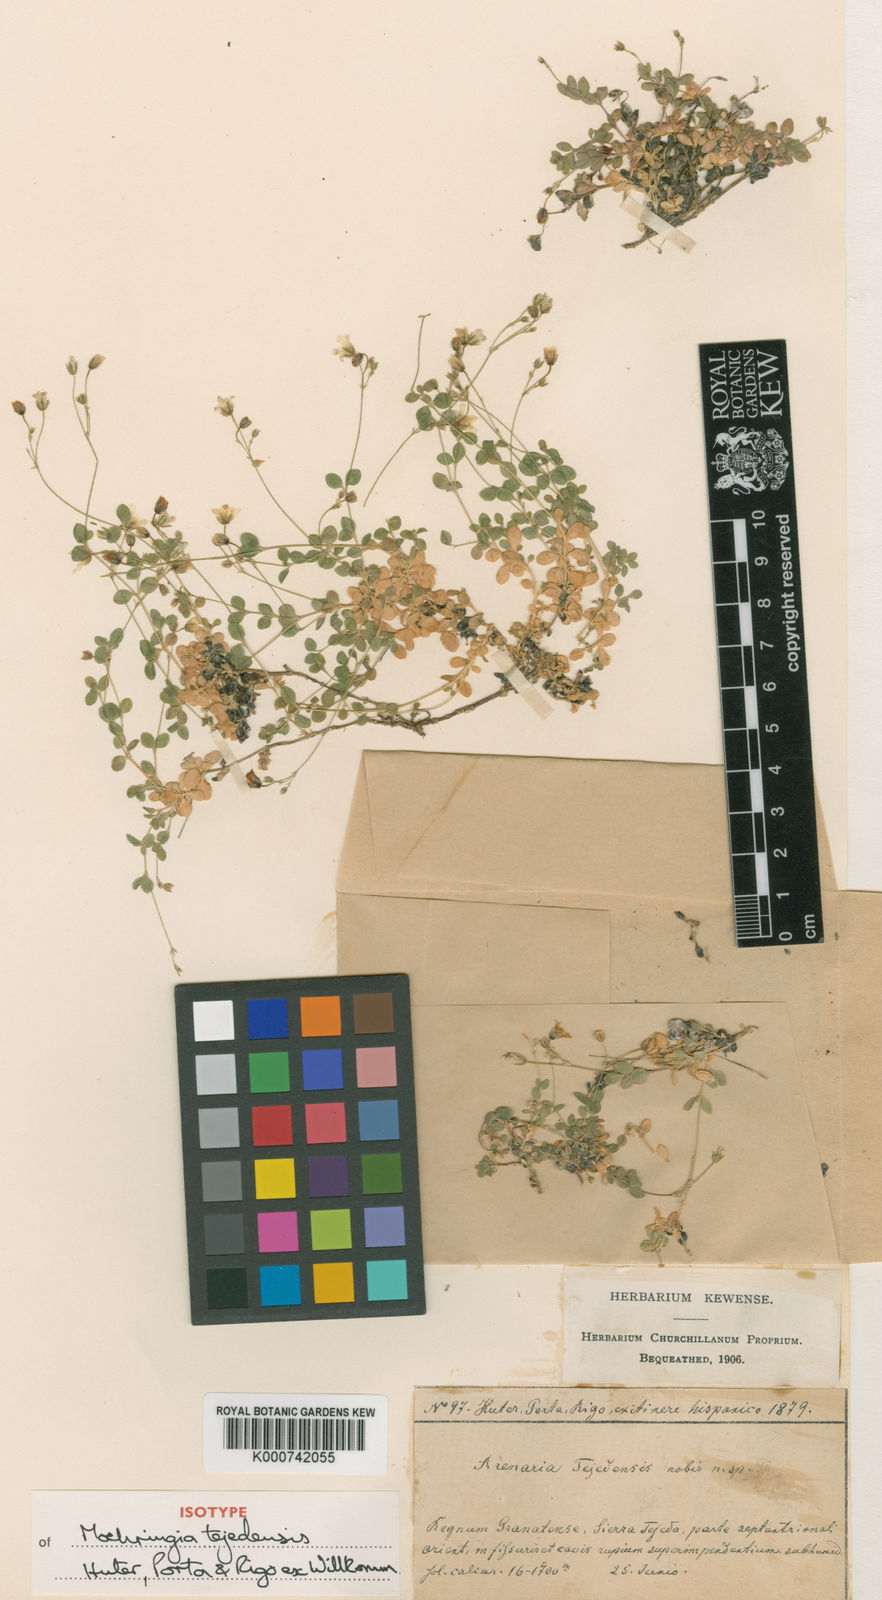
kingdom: Plantae
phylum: Tracheophyta
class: Magnoliopsida
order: Caryophyllales
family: Caryophyllaceae
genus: Arenaria
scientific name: Arenaria tejedensis
